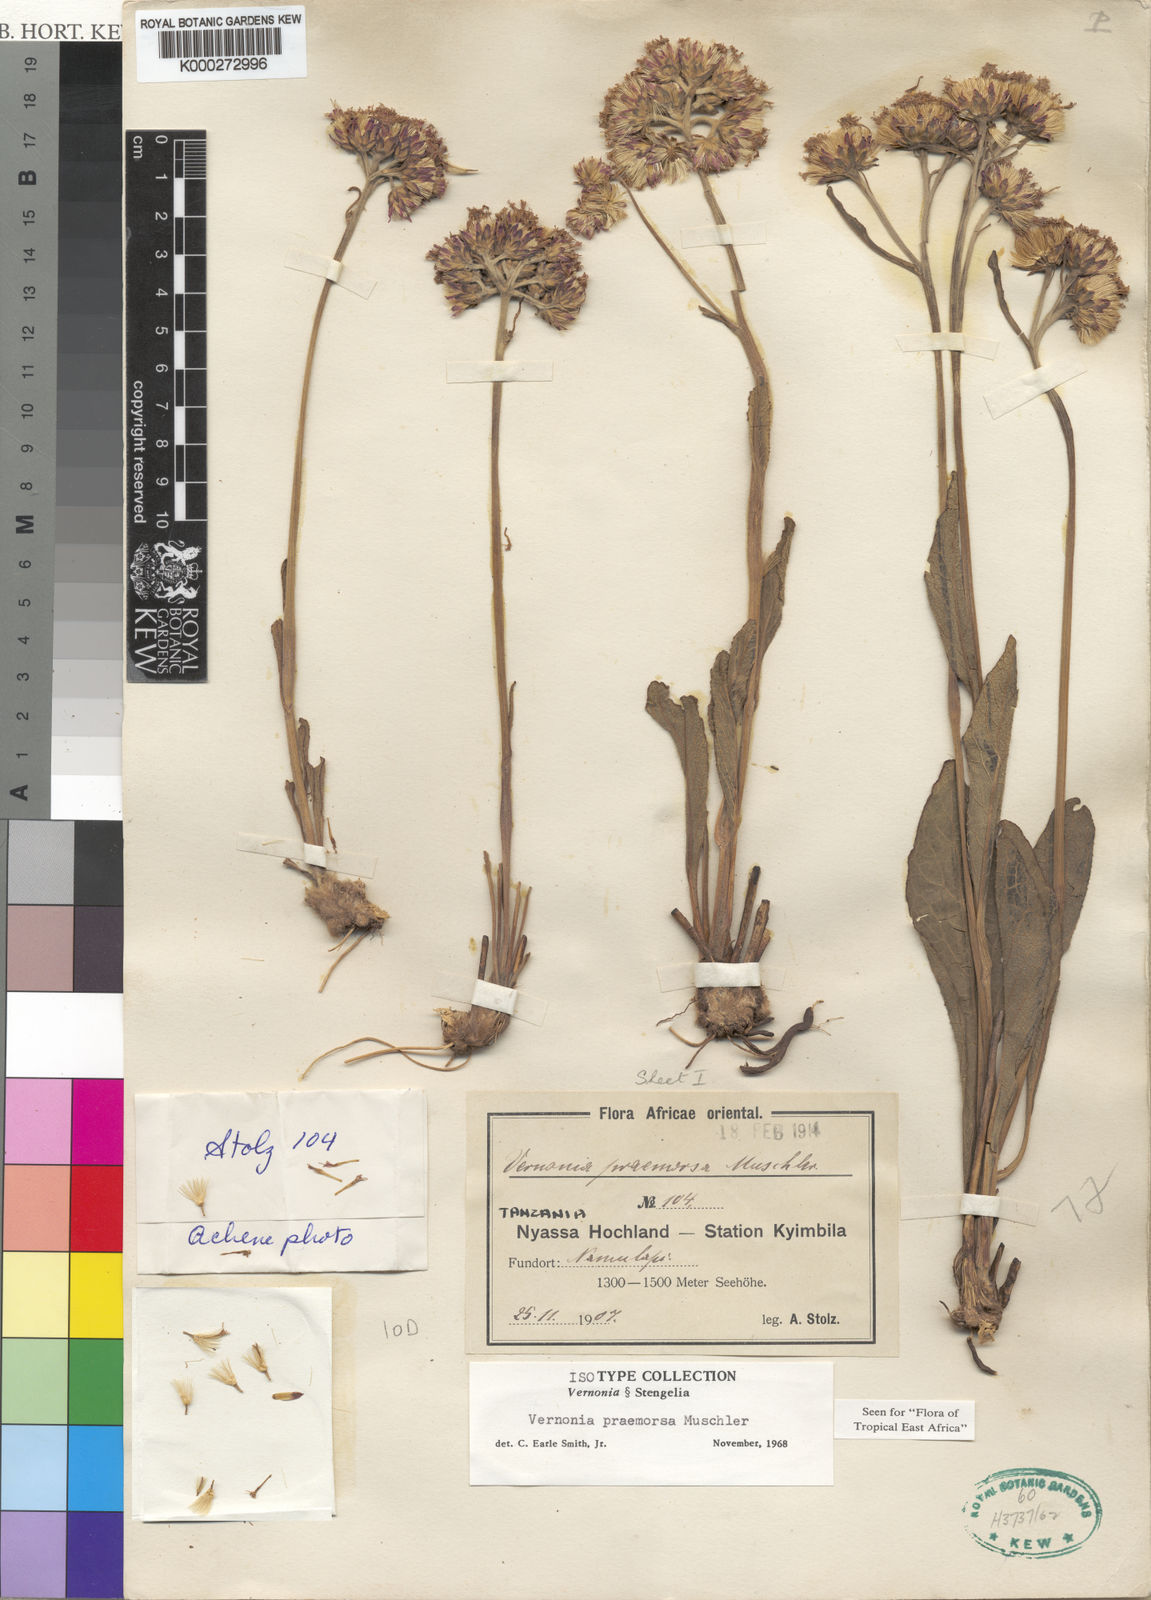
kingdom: Plantae
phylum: Tracheophyta
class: Magnoliopsida
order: Asterales
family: Asteraceae
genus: Vernonella
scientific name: Vernonella praemorsa
